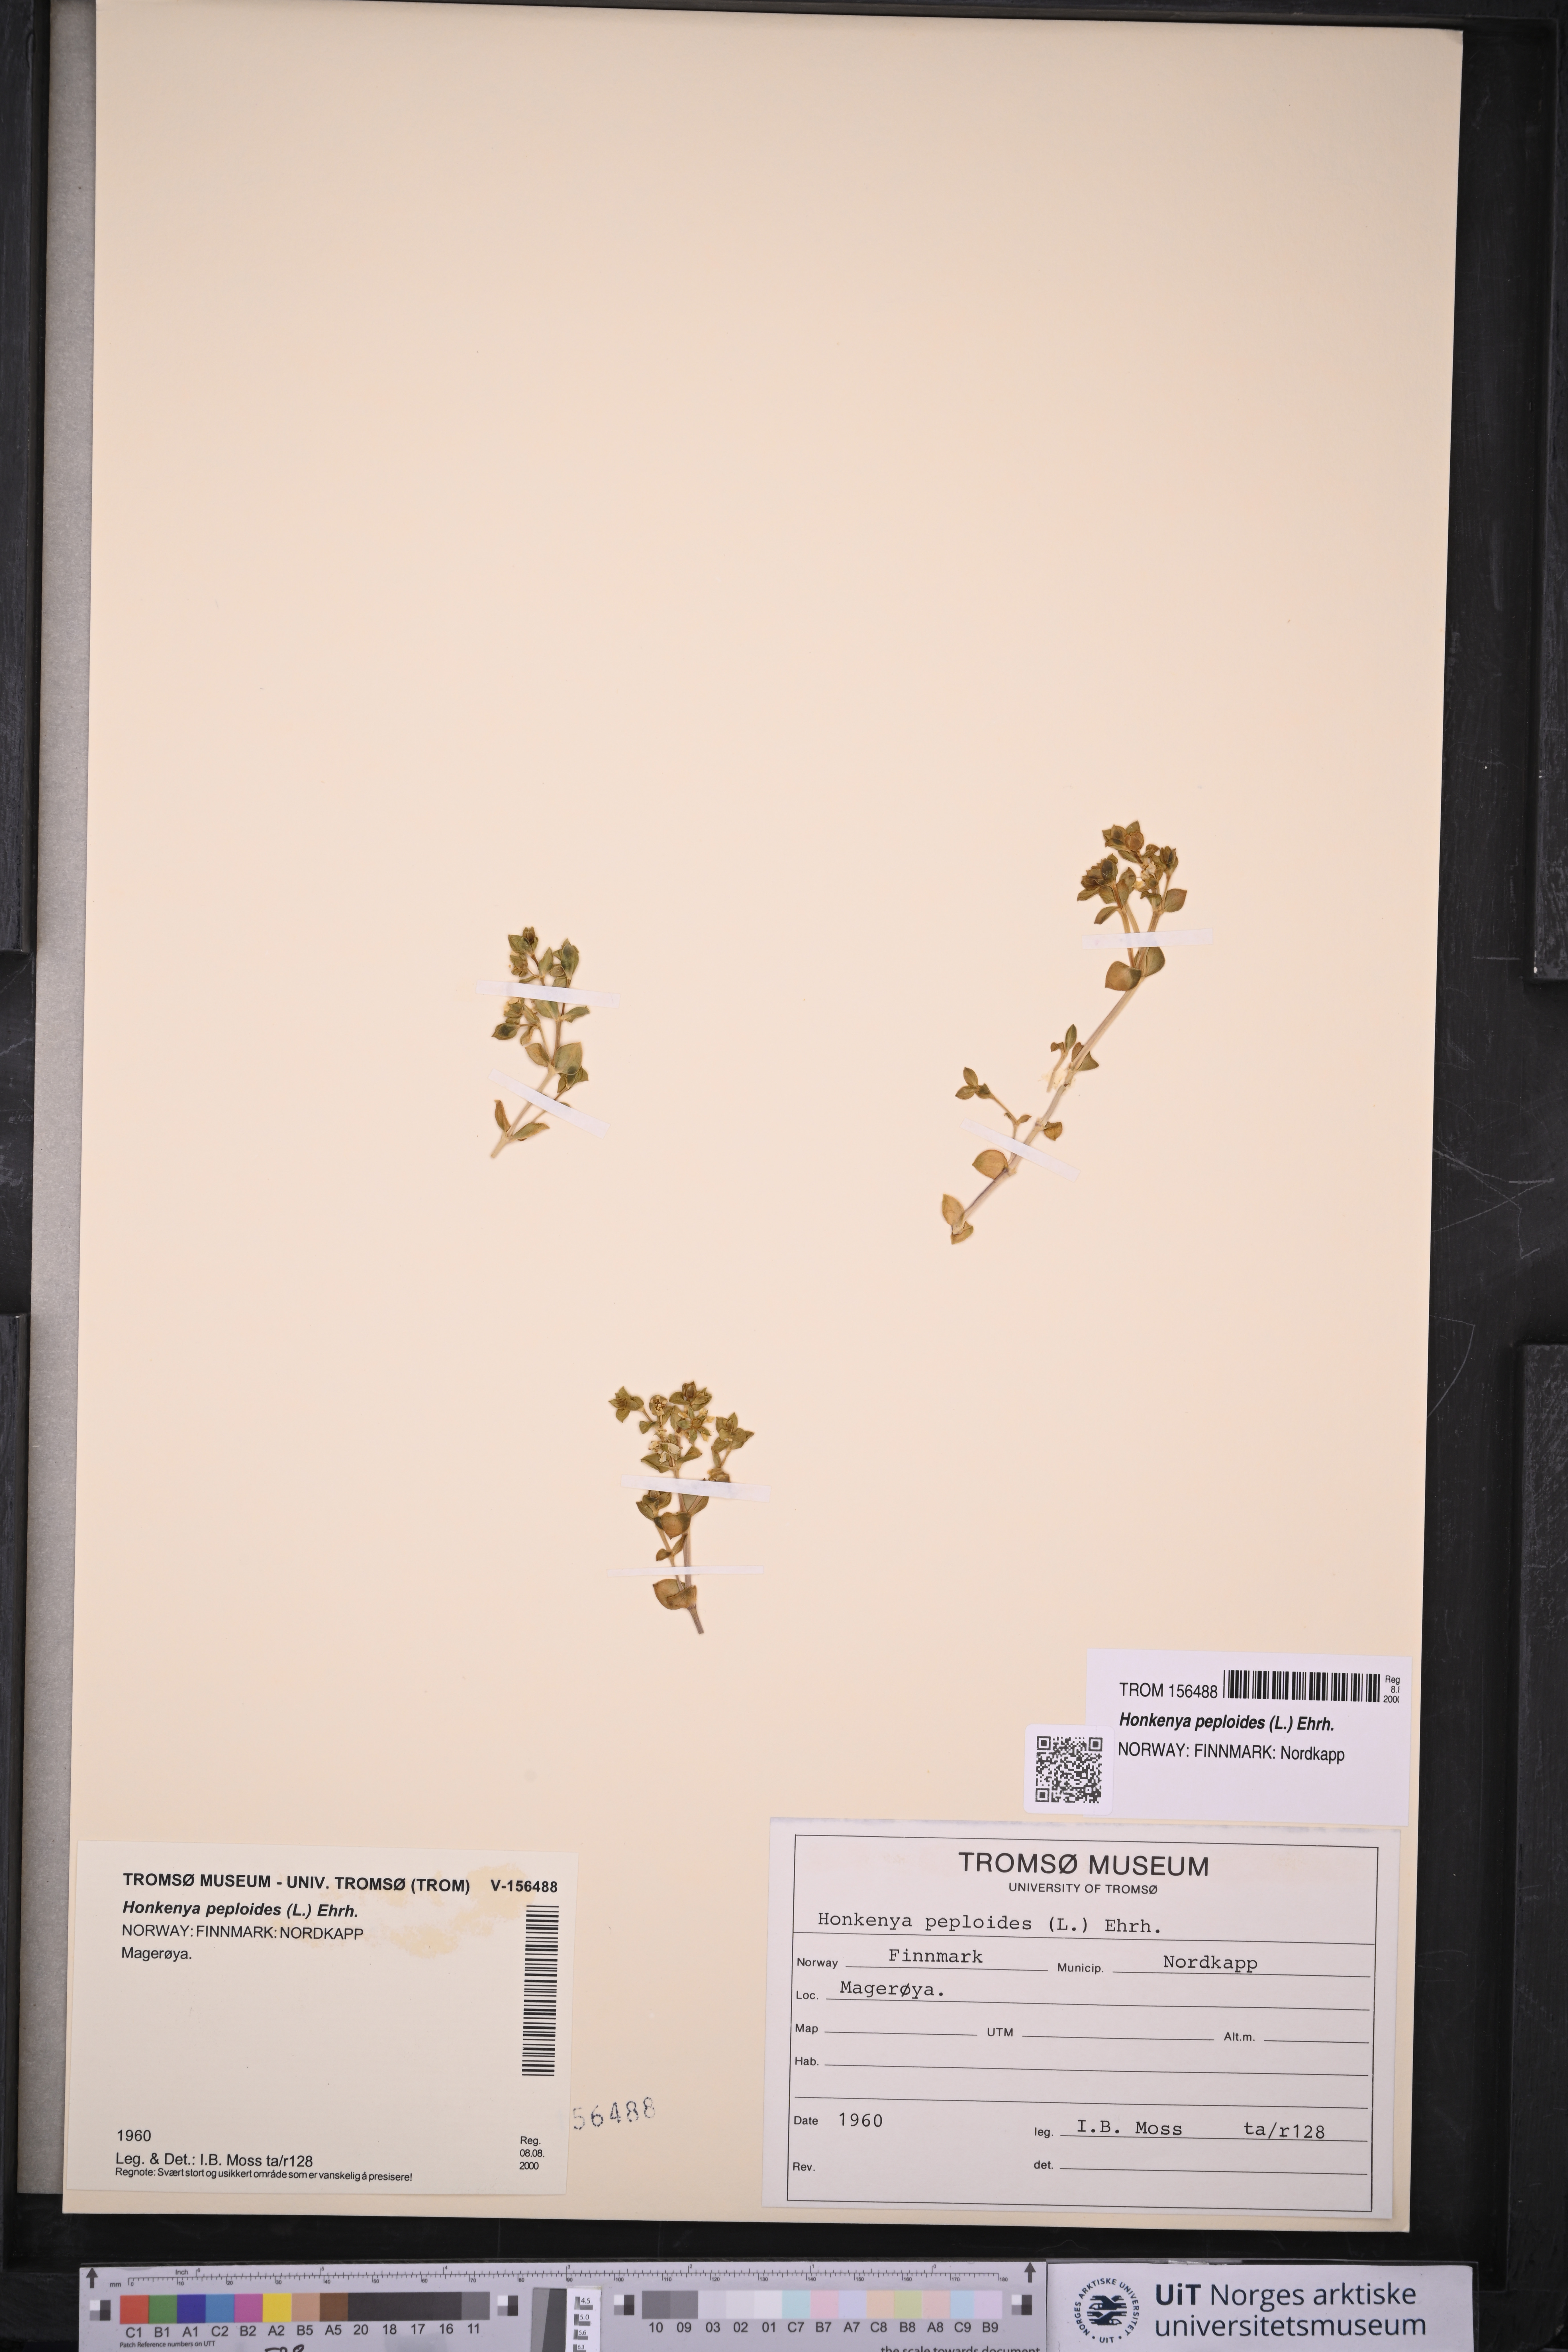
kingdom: Plantae
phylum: Tracheophyta
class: Magnoliopsida
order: Caryophyllales
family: Caryophyllaceae
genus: Honckenya
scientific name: Honckenya peploides
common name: Sea sandwort
